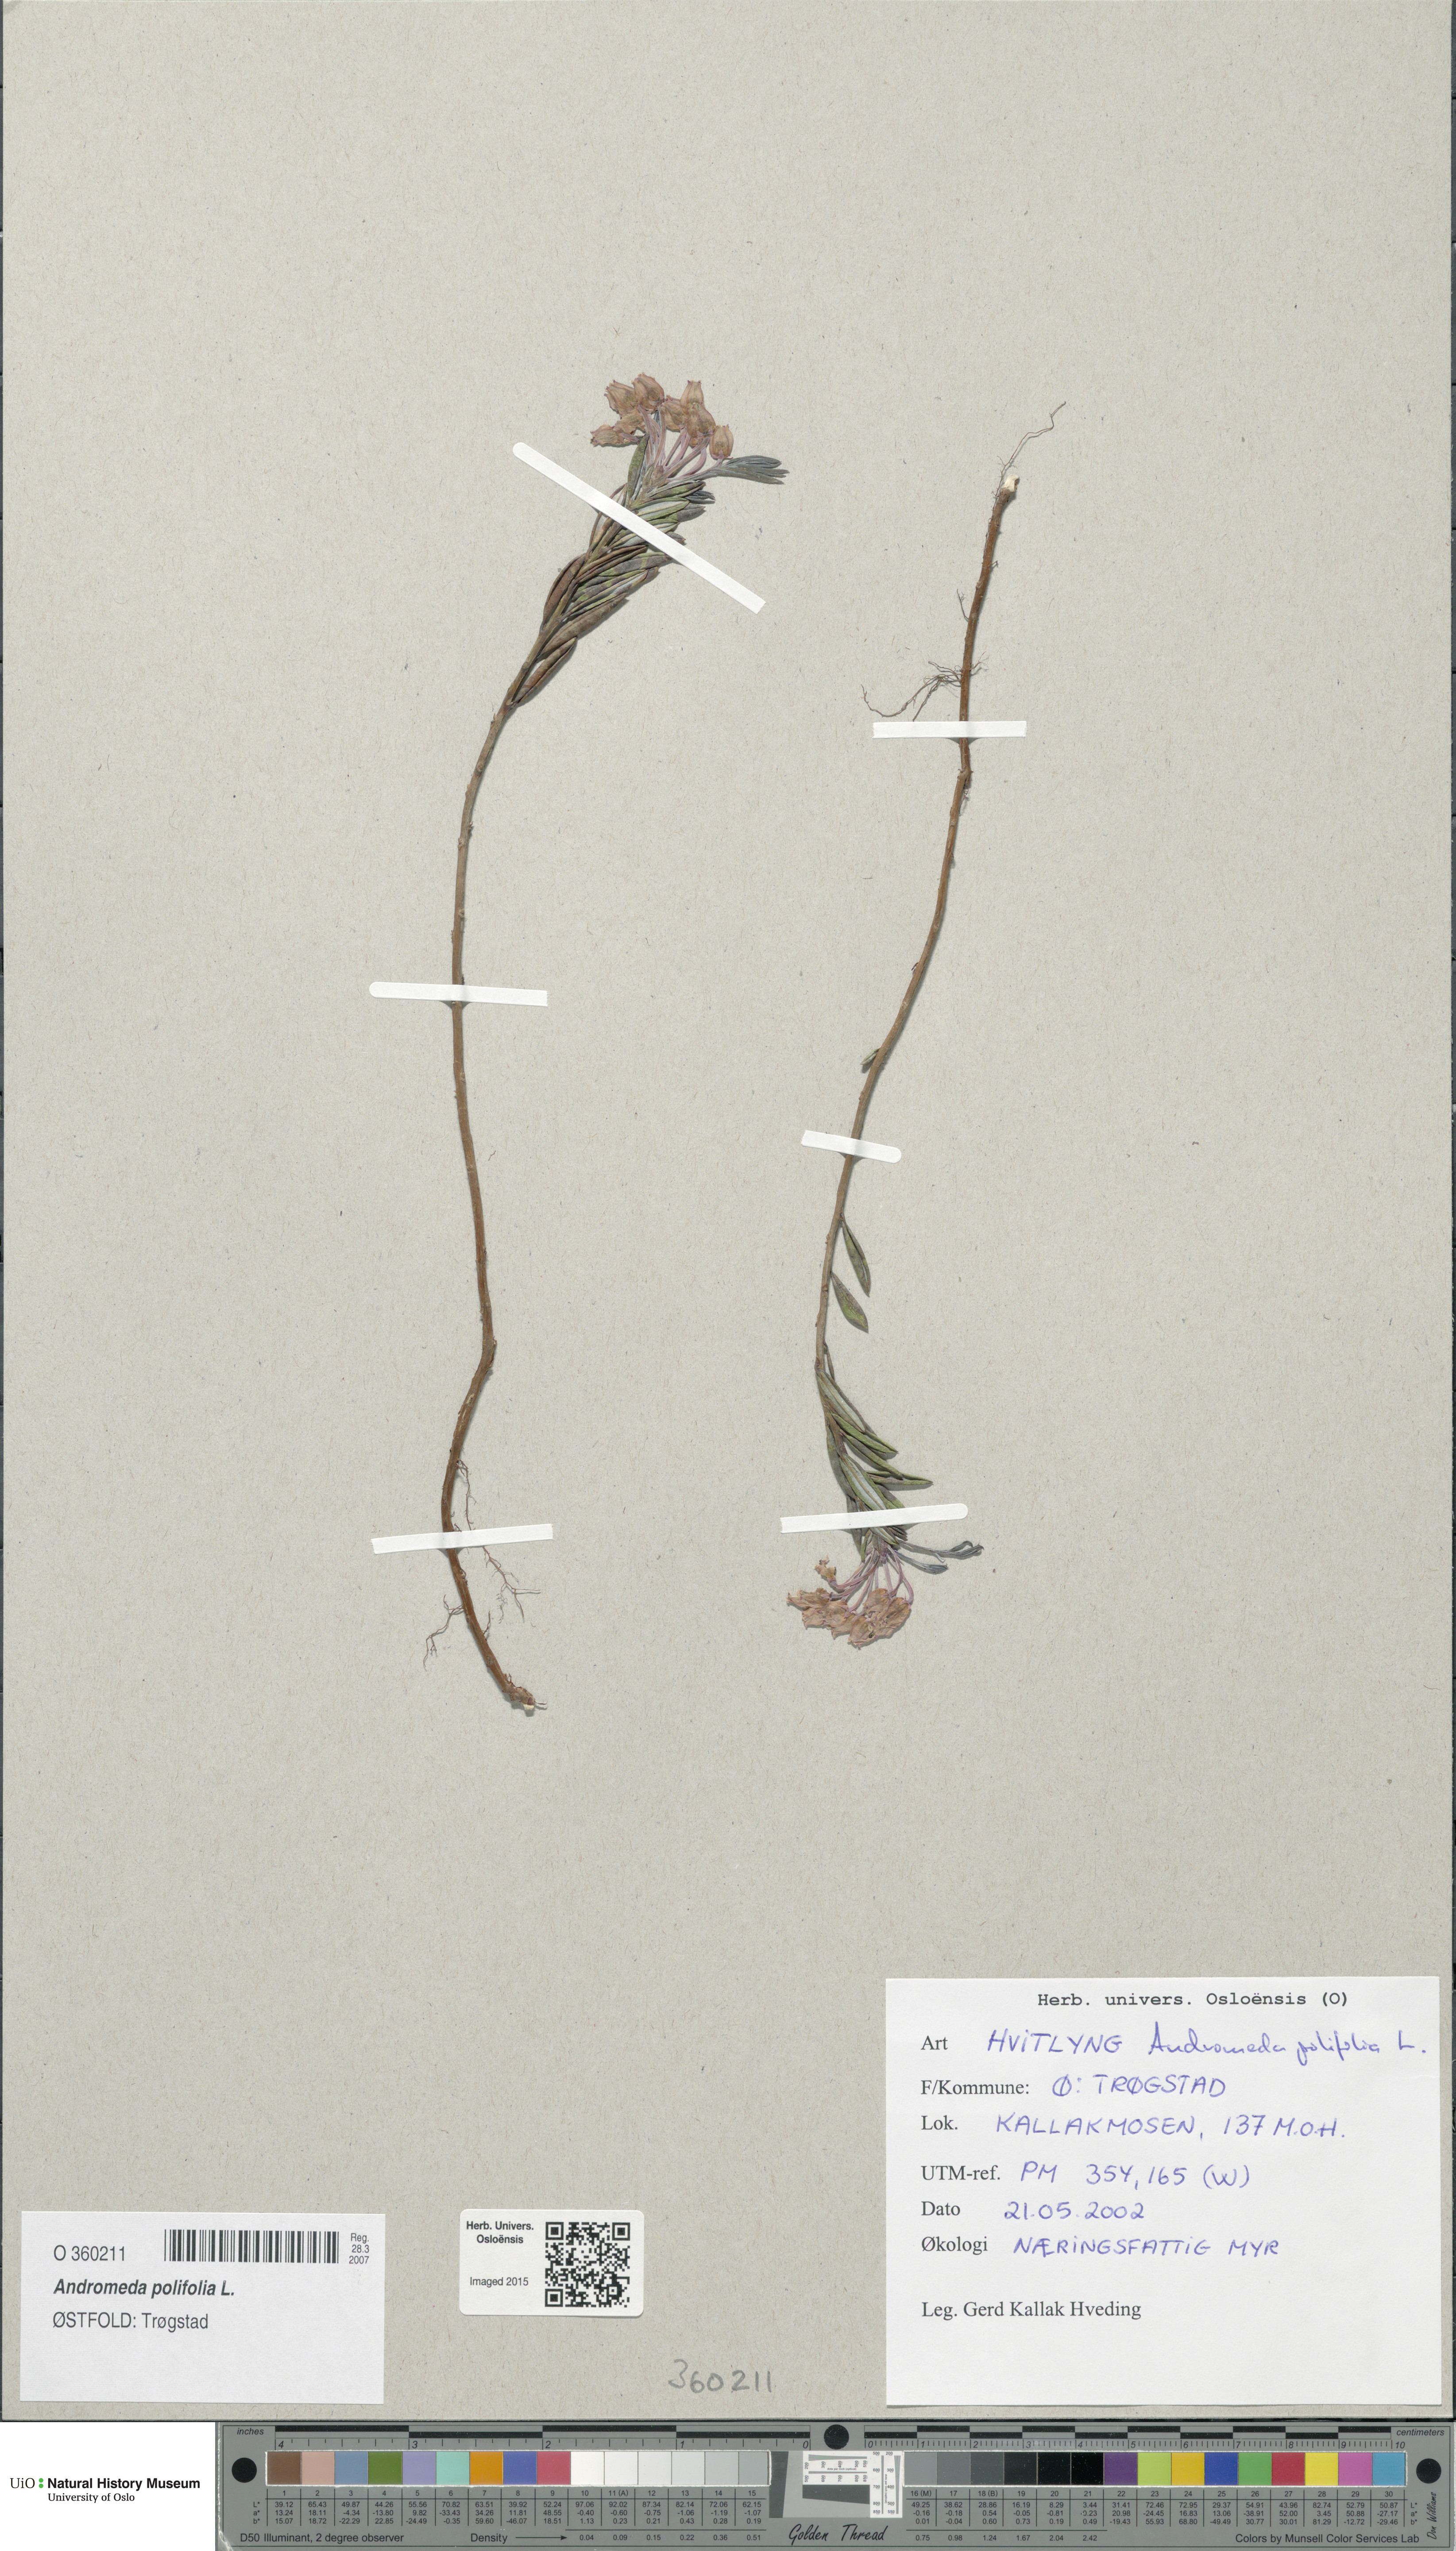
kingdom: Plantae
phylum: Tracheophyta
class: Magnoliopsida
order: Ericales
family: Ericaceae
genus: Andromeda
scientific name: Andromeda polifolia
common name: Bog-rosemary
